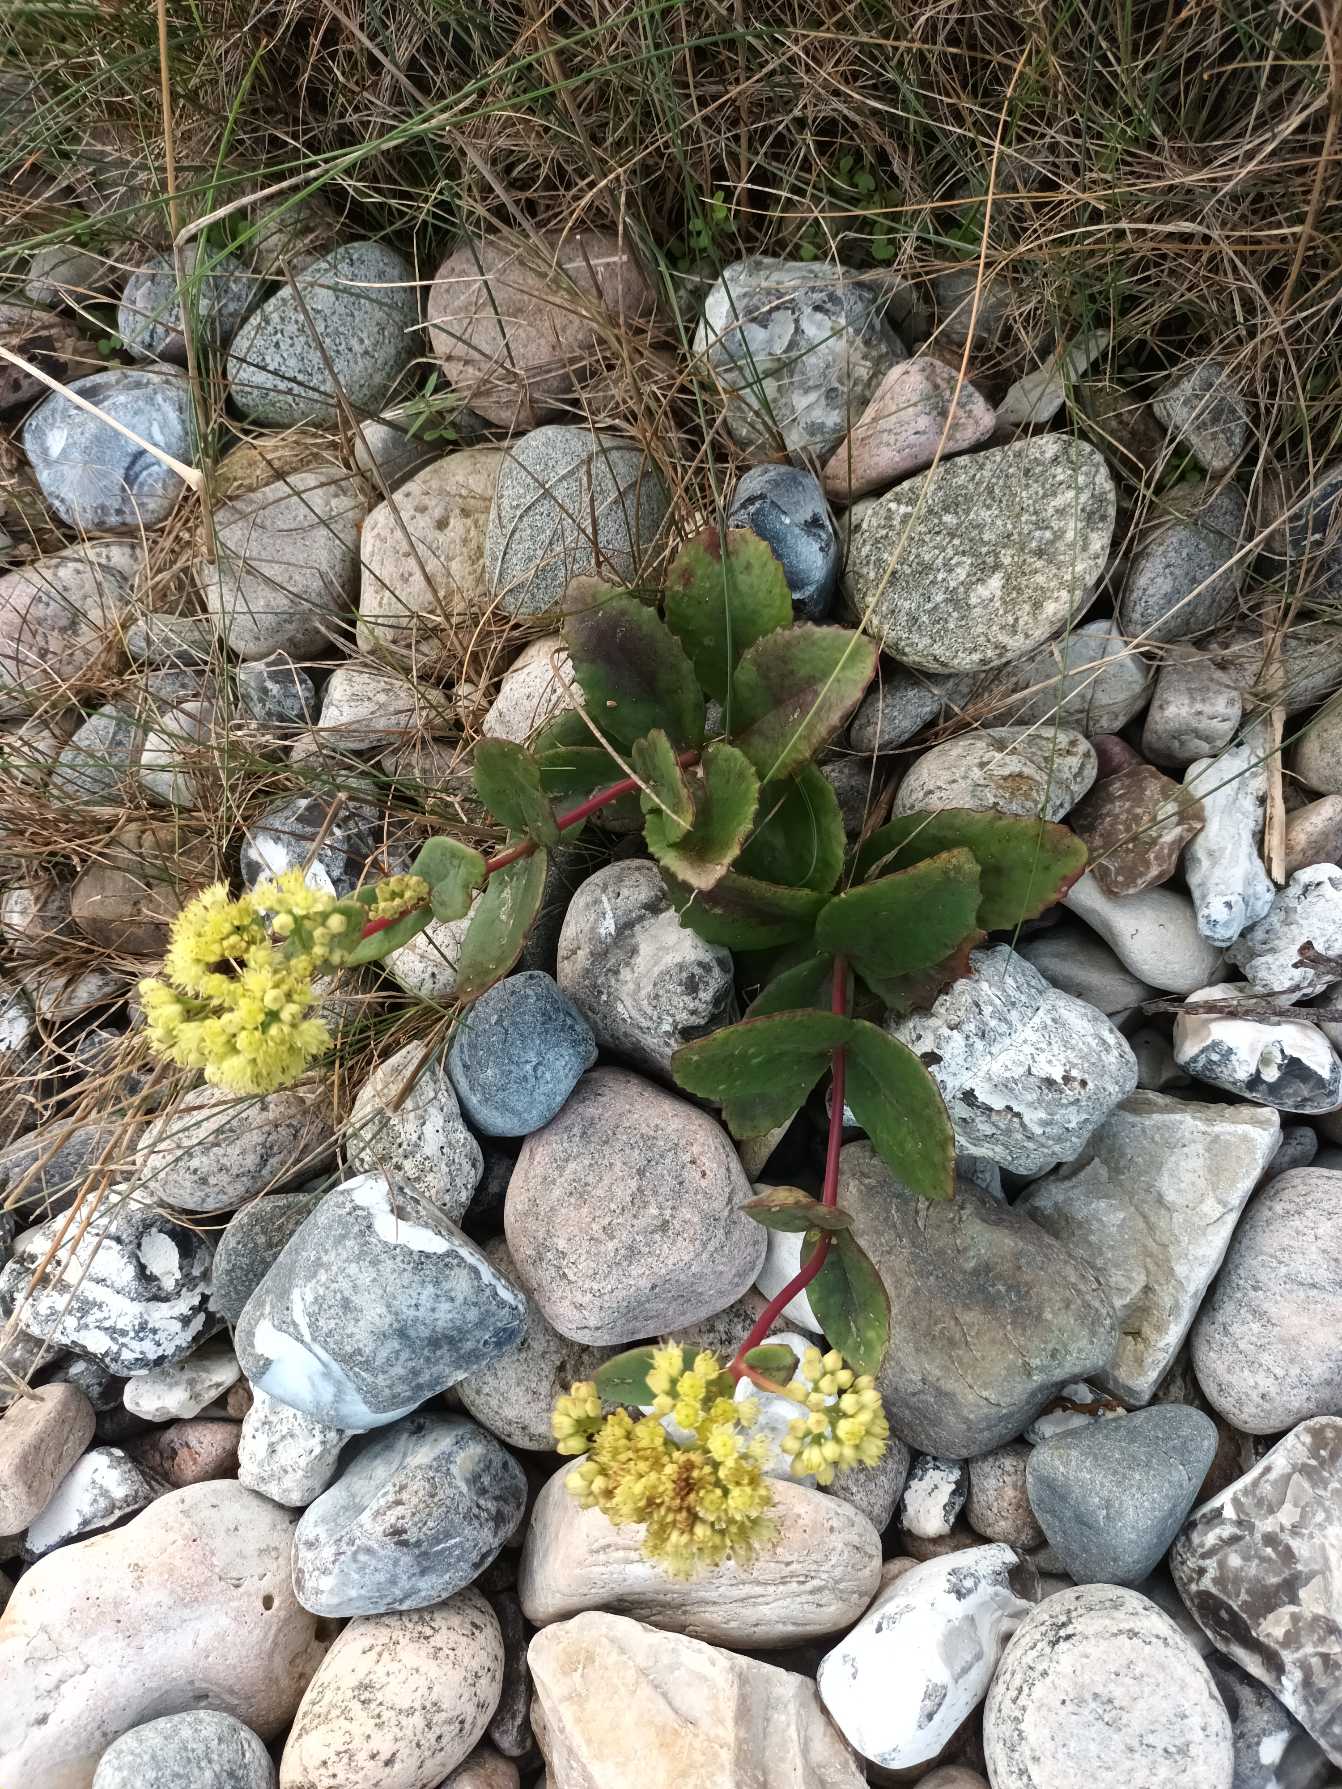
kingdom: Plantae
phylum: Tracheophyta
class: Magnoliopsida
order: Saxifragales
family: Crassulaceae
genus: Hylotelephium
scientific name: Hylotelephium maximum
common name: Almindelig sankthansurt
